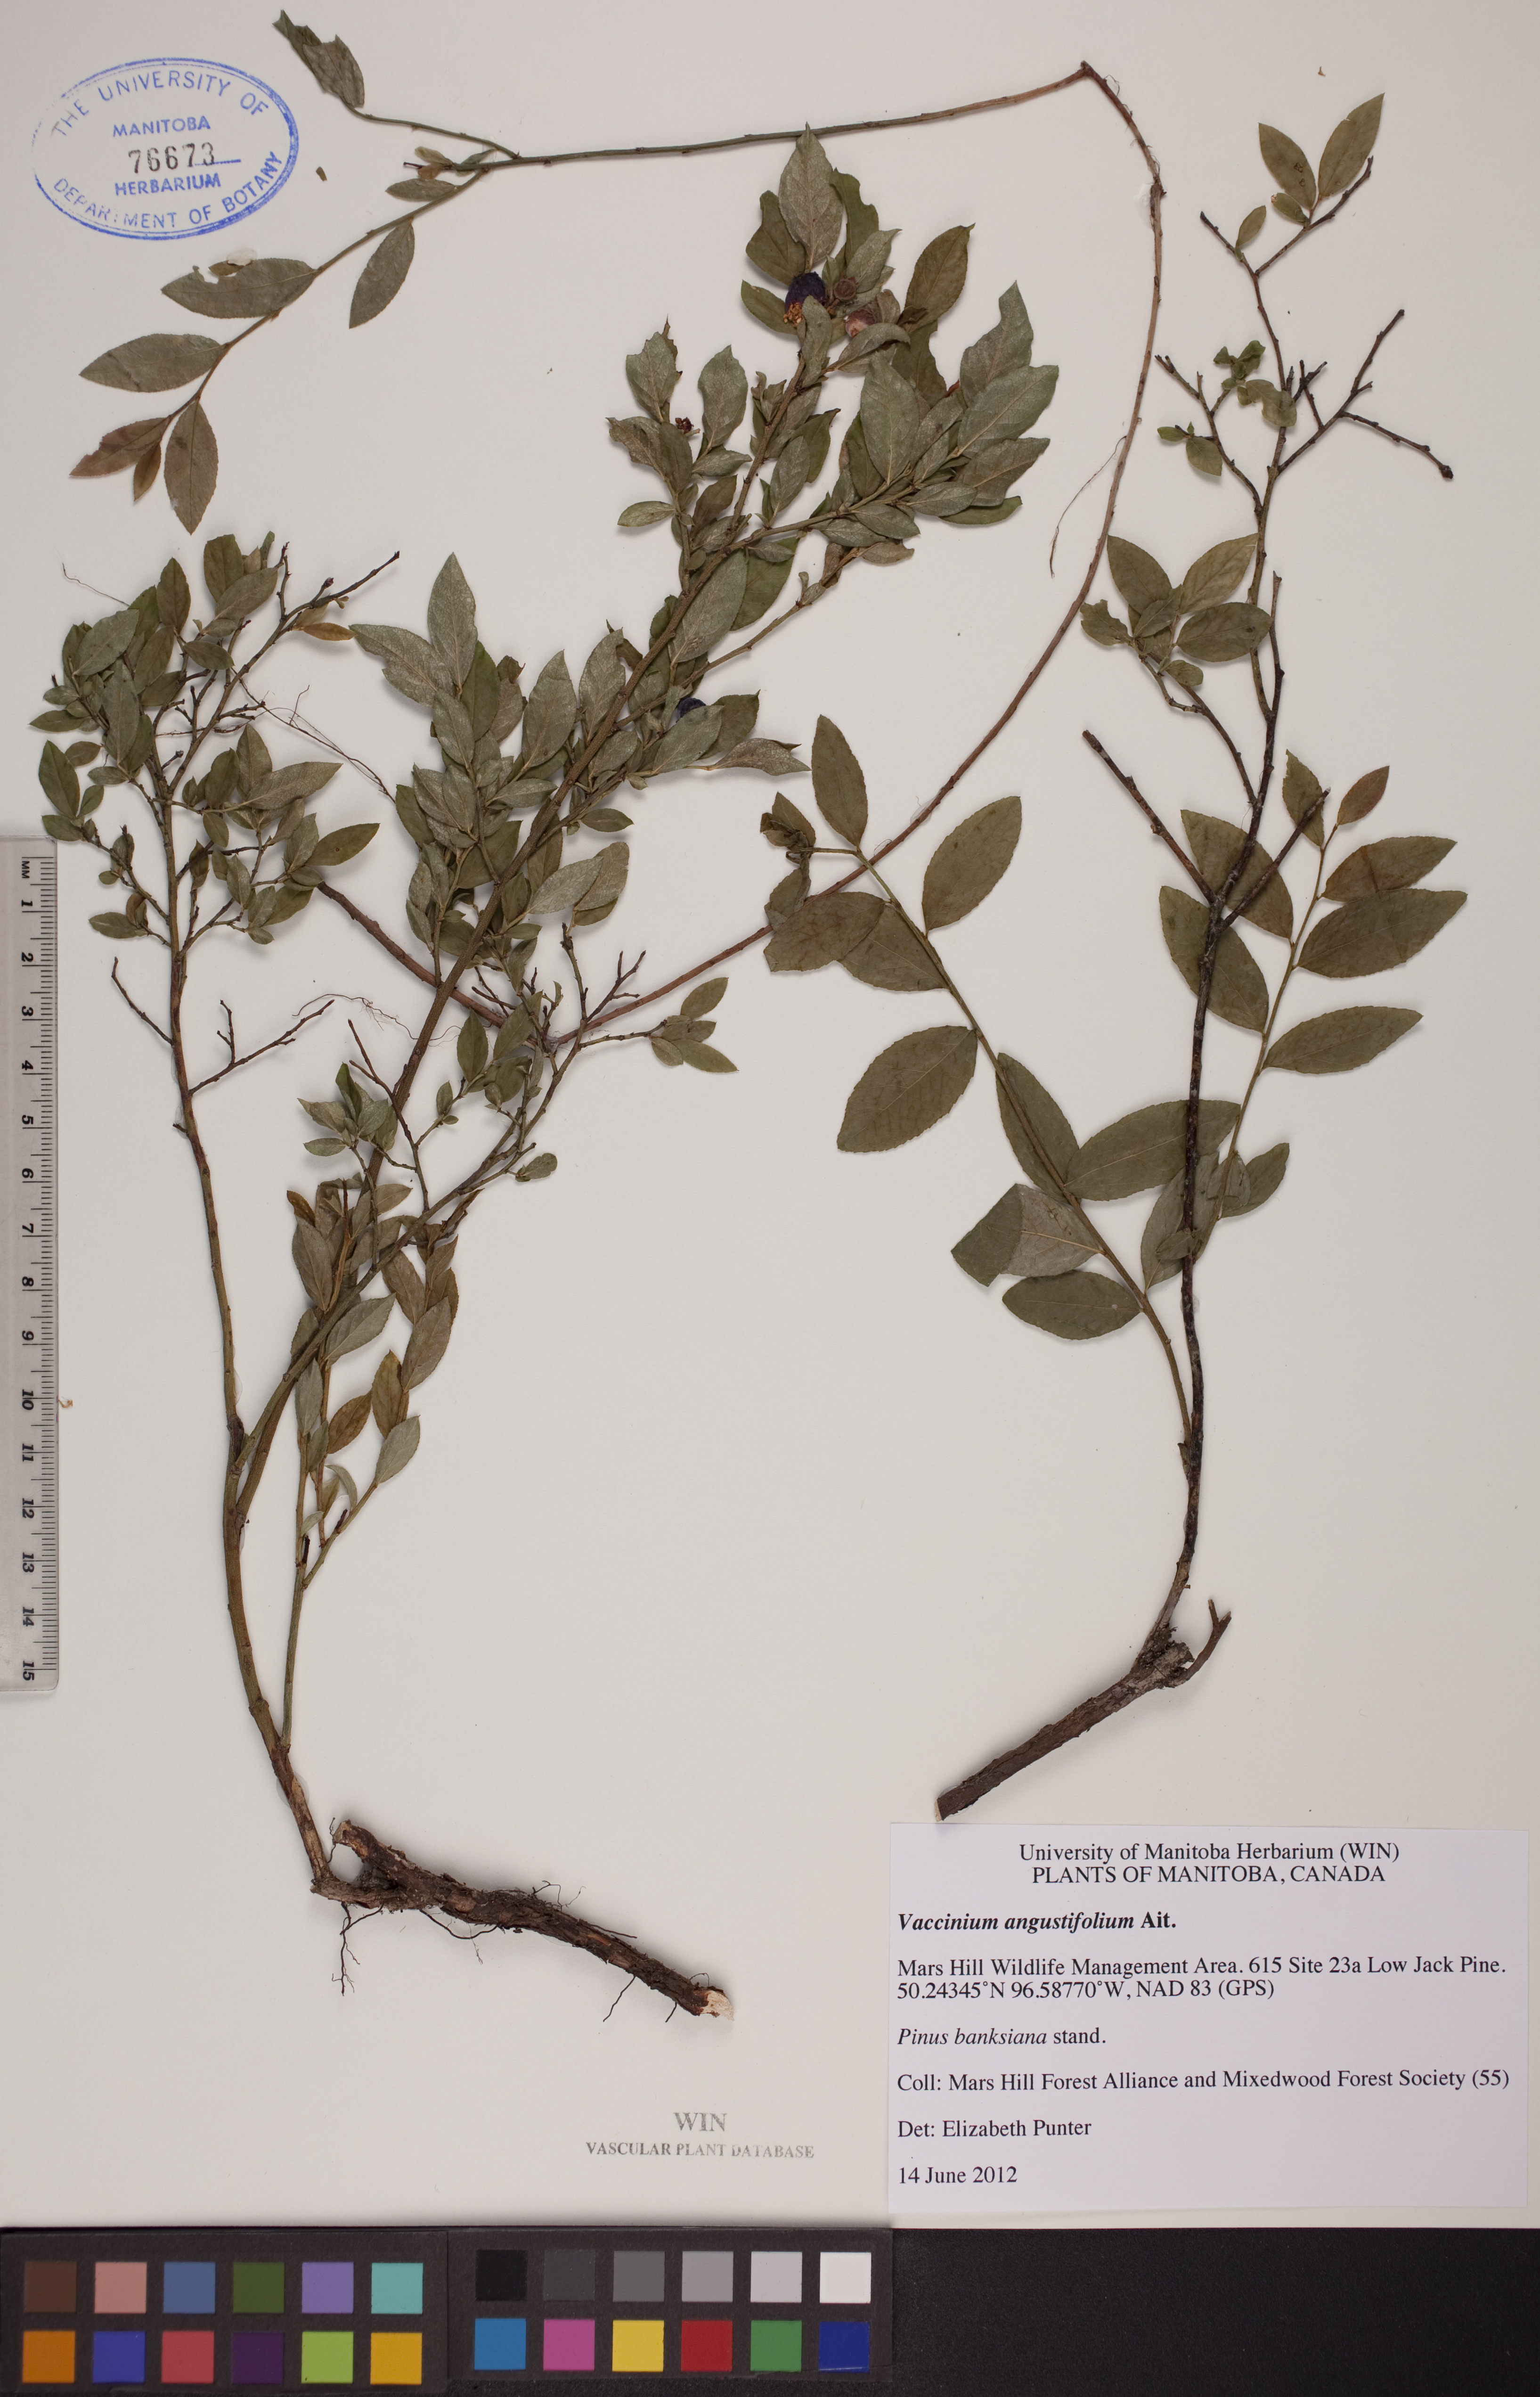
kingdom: Plantae
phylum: Tracheophyta
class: Magnoliopsida
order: Ericales
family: Ericaceae
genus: Vaccinium
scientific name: Vaccinium angustifolium
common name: Early lowbush blueberry
